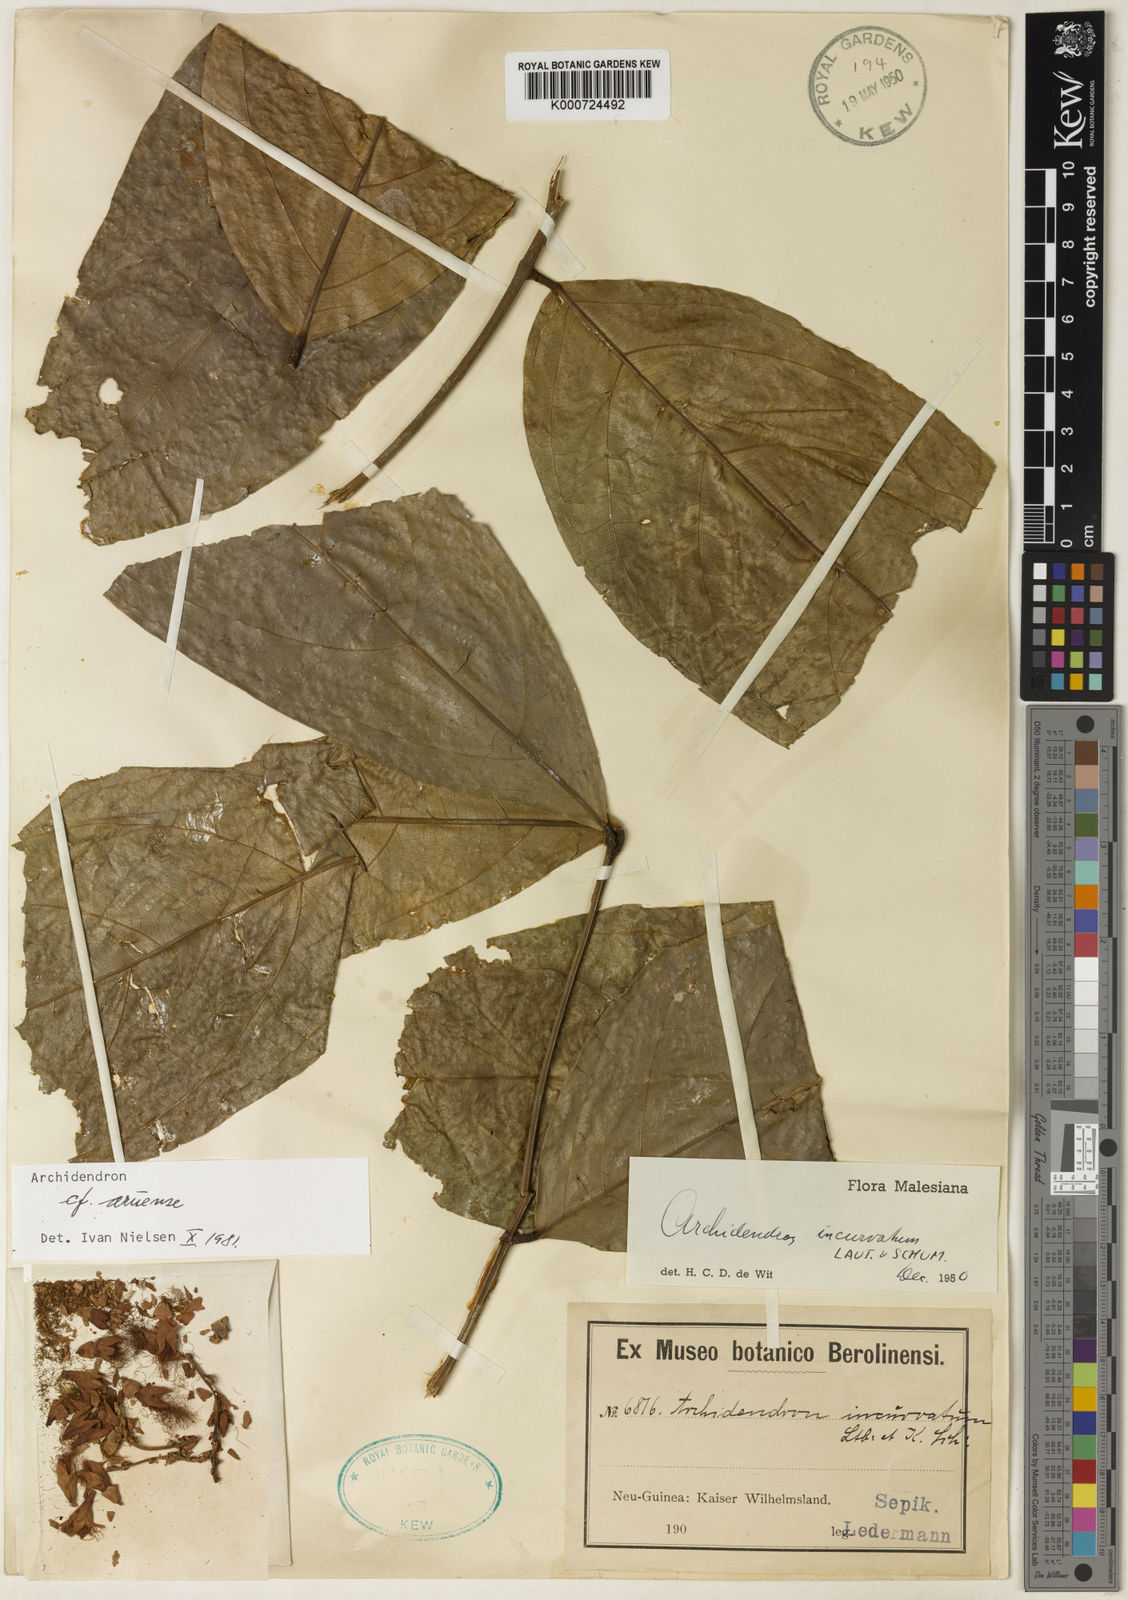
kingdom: Plantae
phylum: Tracheophyta
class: Magnoliopsida
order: Fabales
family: Fabaceae
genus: Archidendron
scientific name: Archidendron aruense
